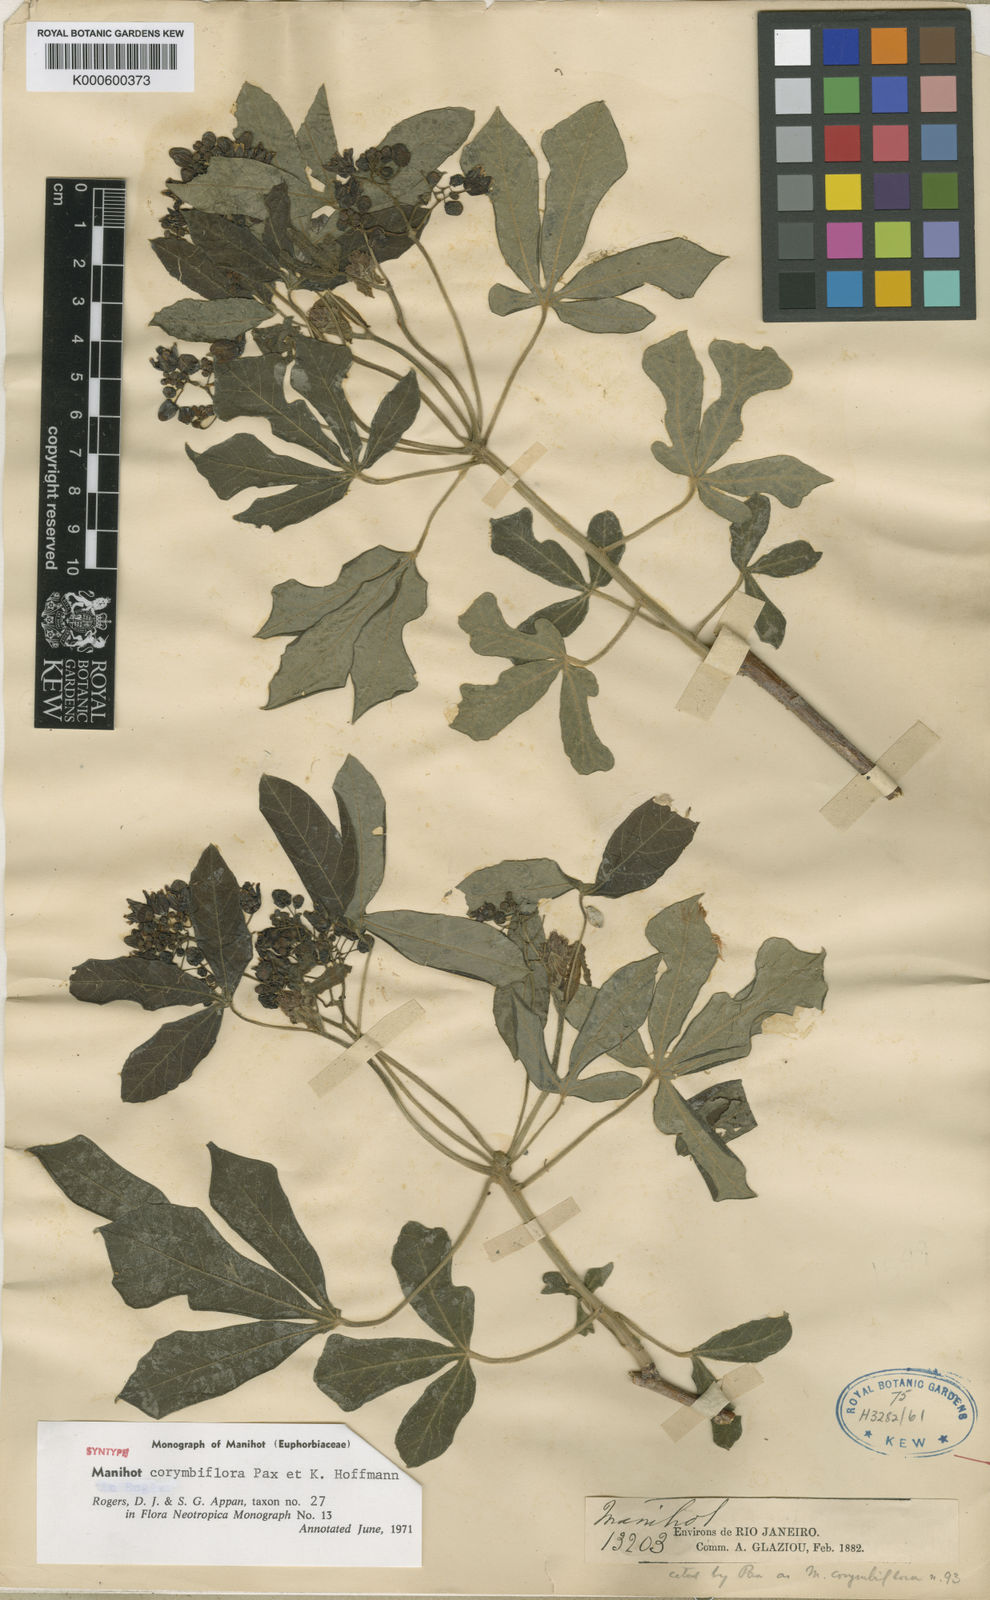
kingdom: Plantae
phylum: Tracheophyta
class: Magnoliopsida
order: Malpighiales
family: Euphorbiaceae
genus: Manihot
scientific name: Manihot corymbiflora
